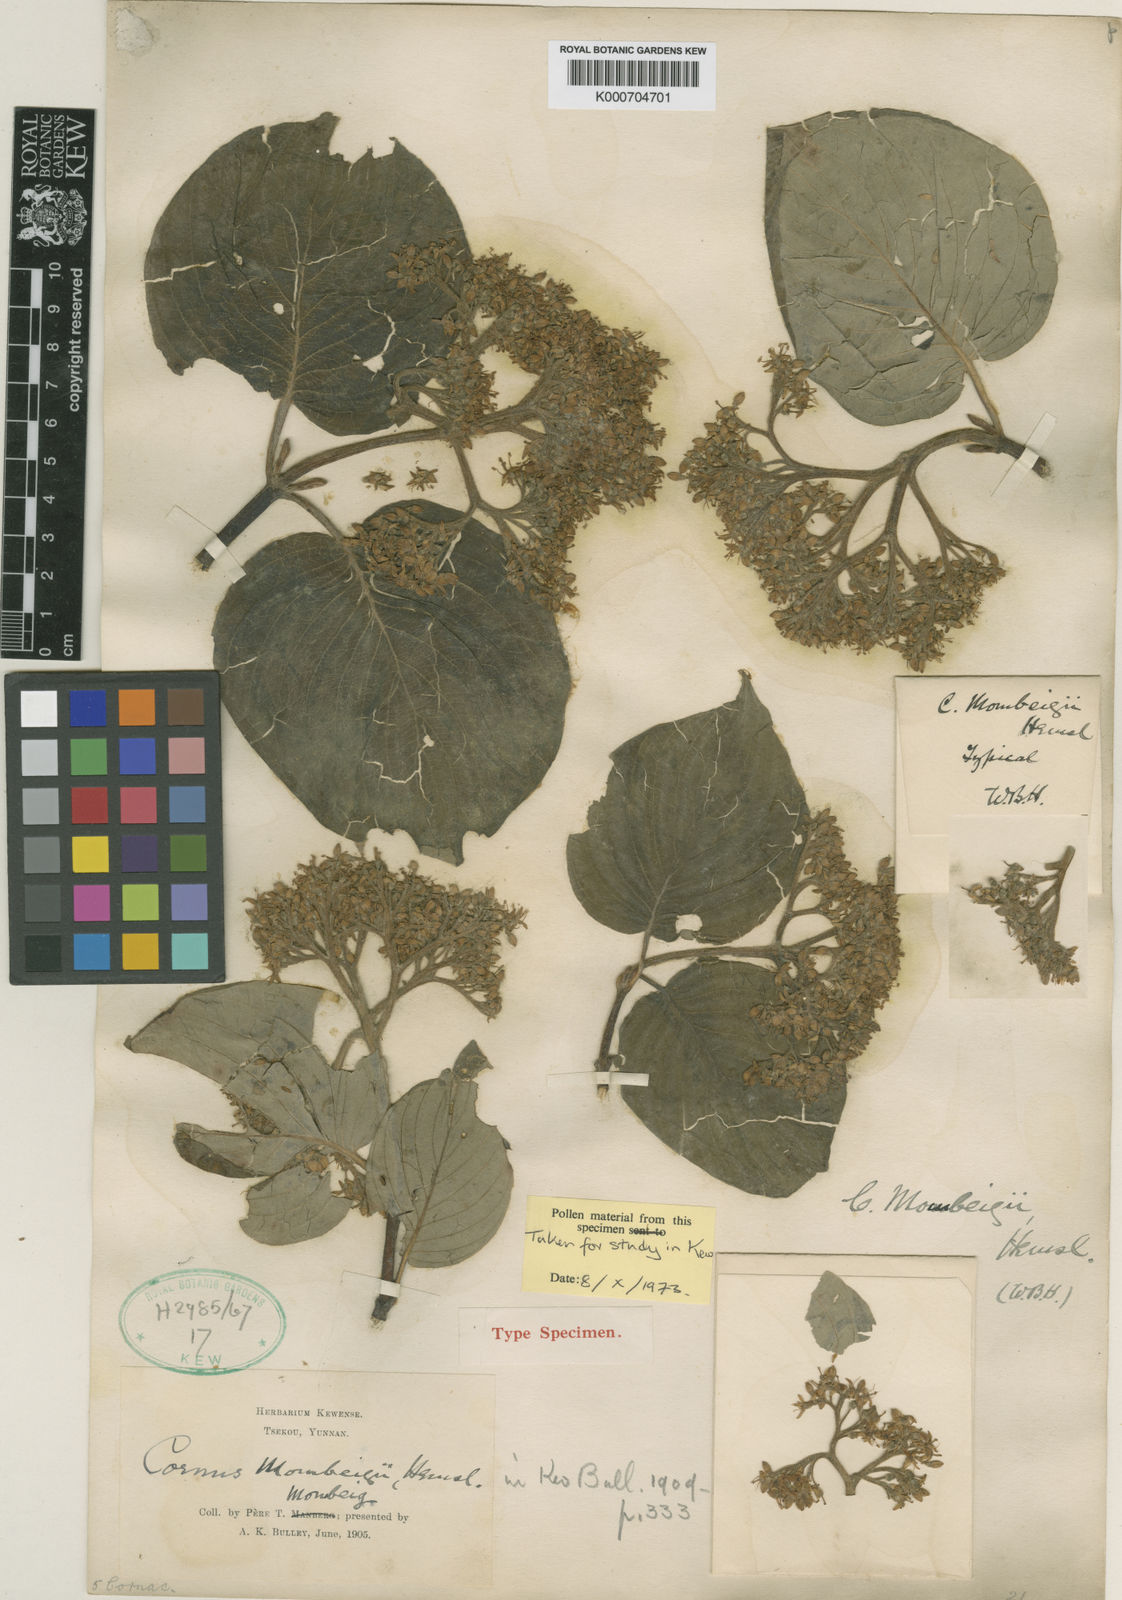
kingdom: Plantae
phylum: Tracheophyta
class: Magnoliopsida
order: Cornales
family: Cornaceae
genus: Cornus
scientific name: Cornus schindleri
